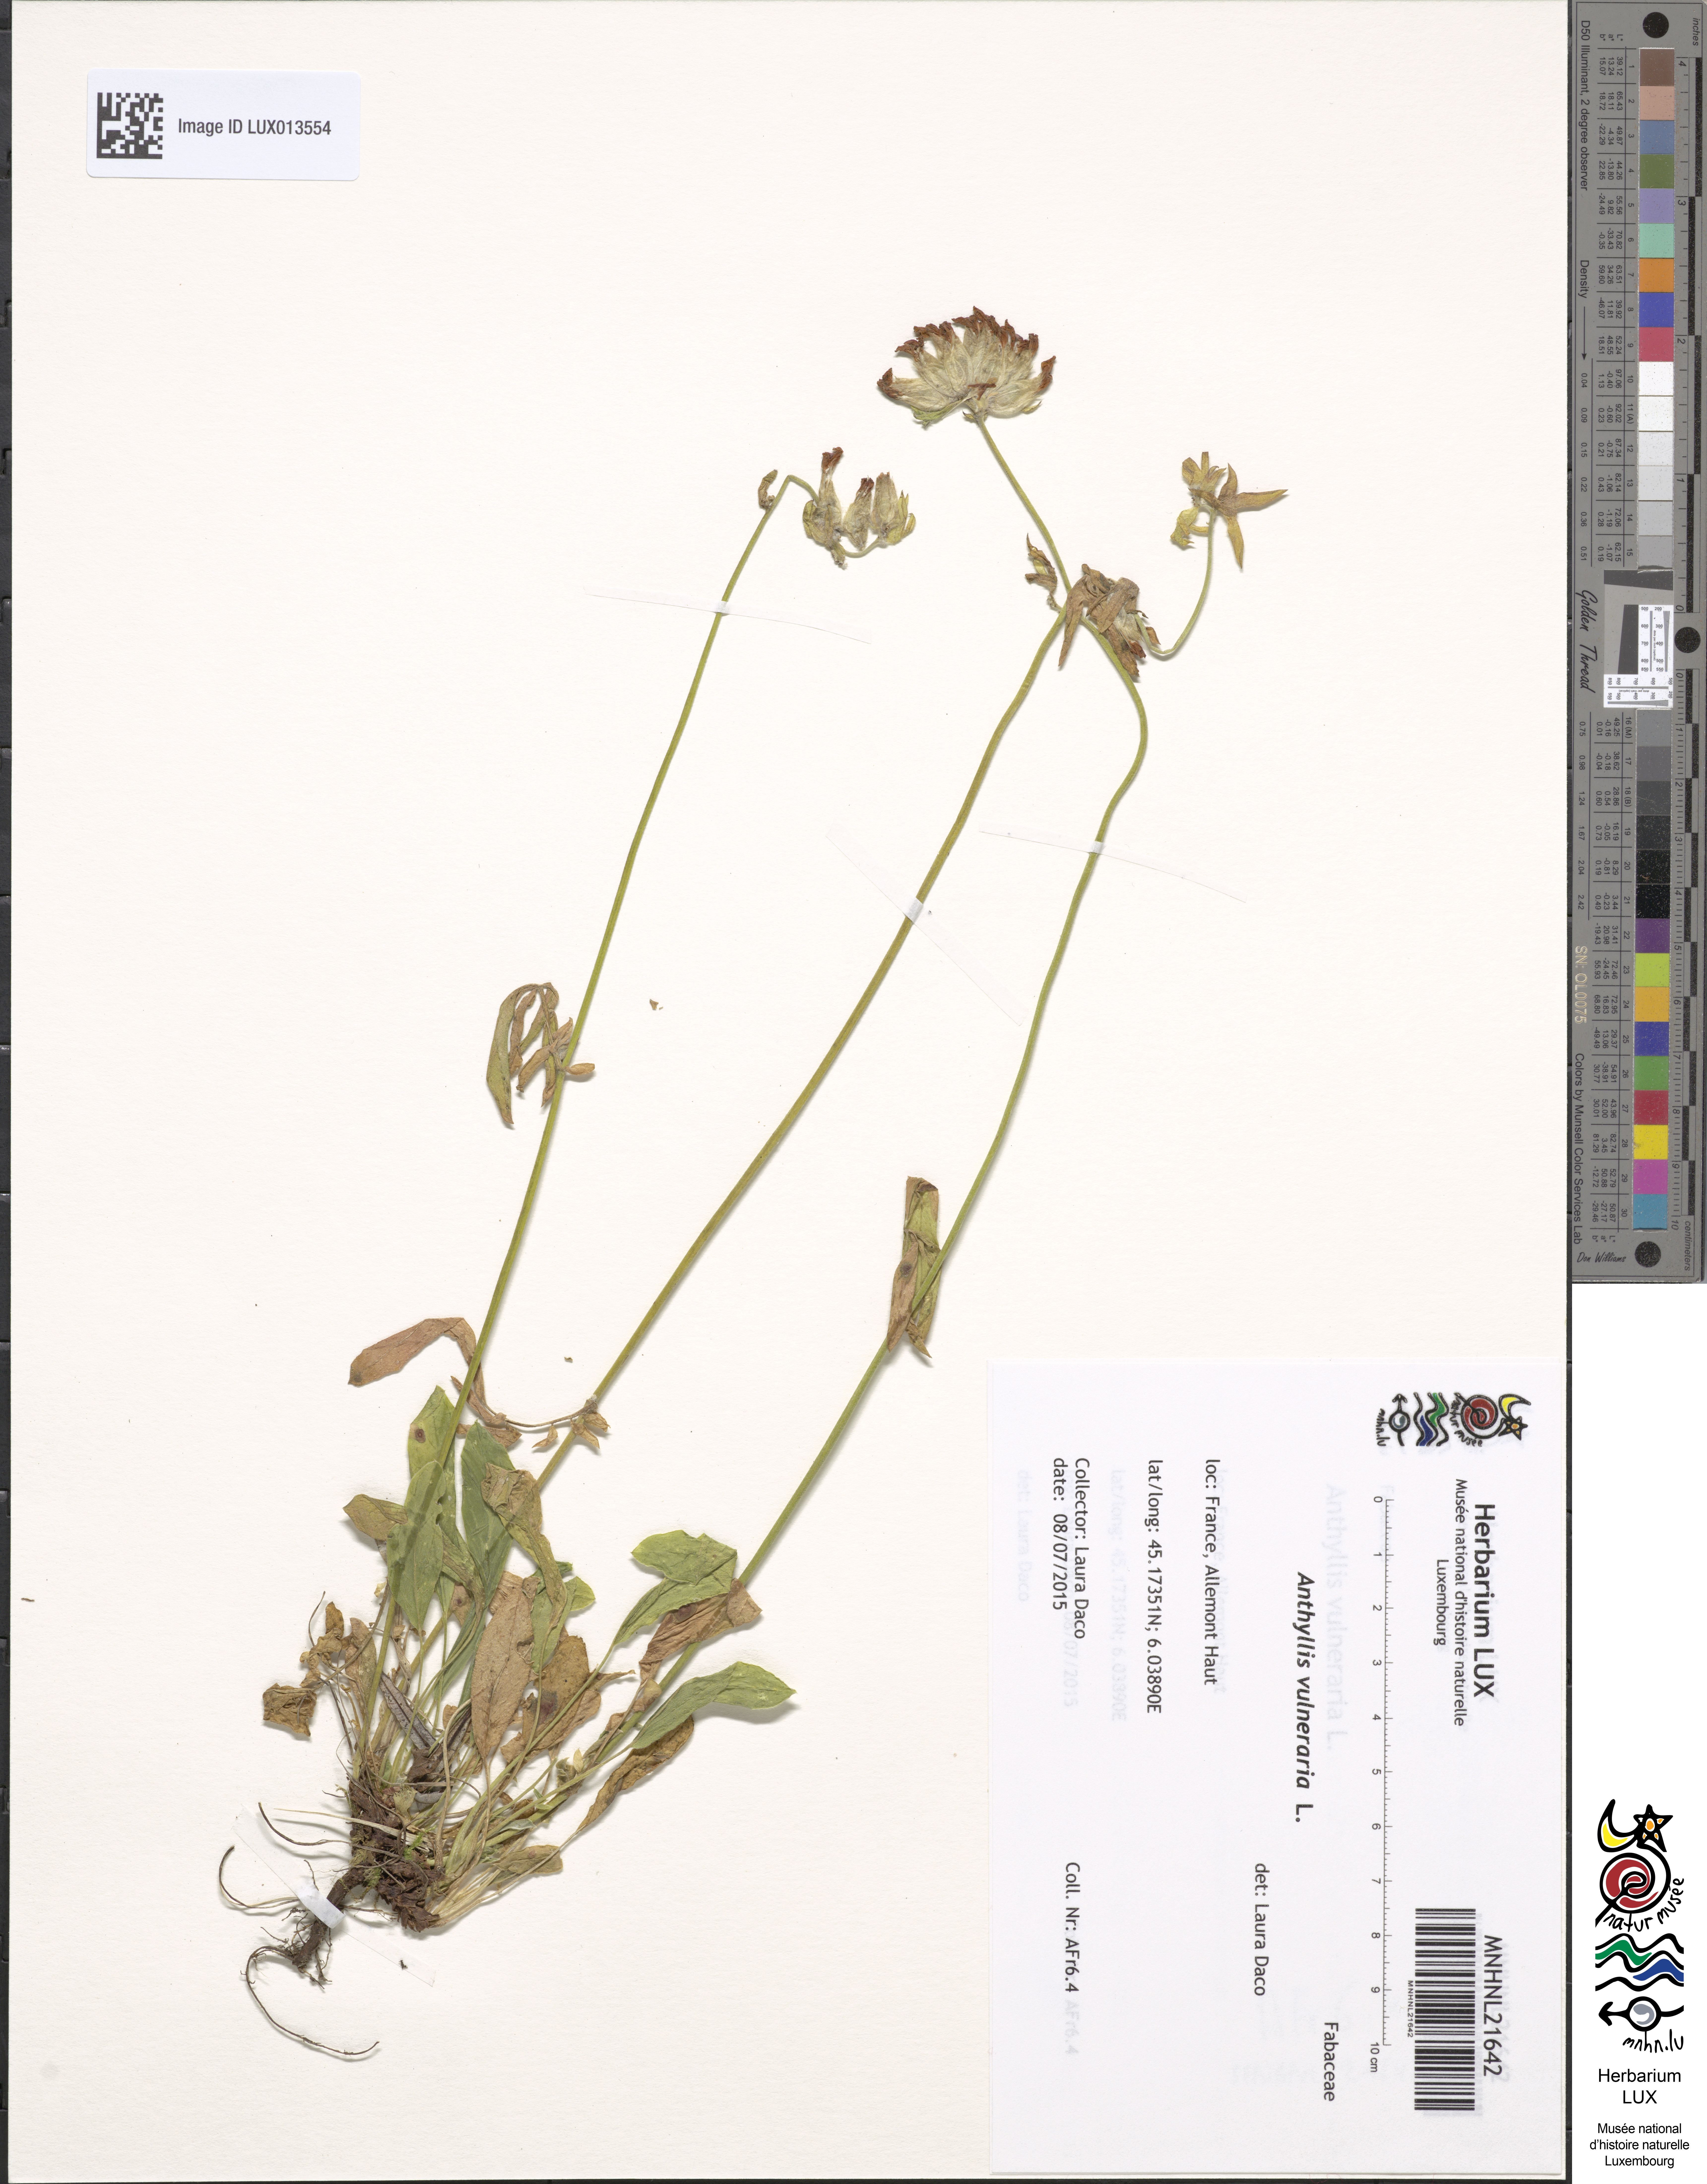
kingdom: Plantae
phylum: Tracheophyta
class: Magnoliopsida
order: Fabales
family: Fabaceae
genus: Anthyllis
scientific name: Anthyllis vulneraria
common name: Kidney vetch
